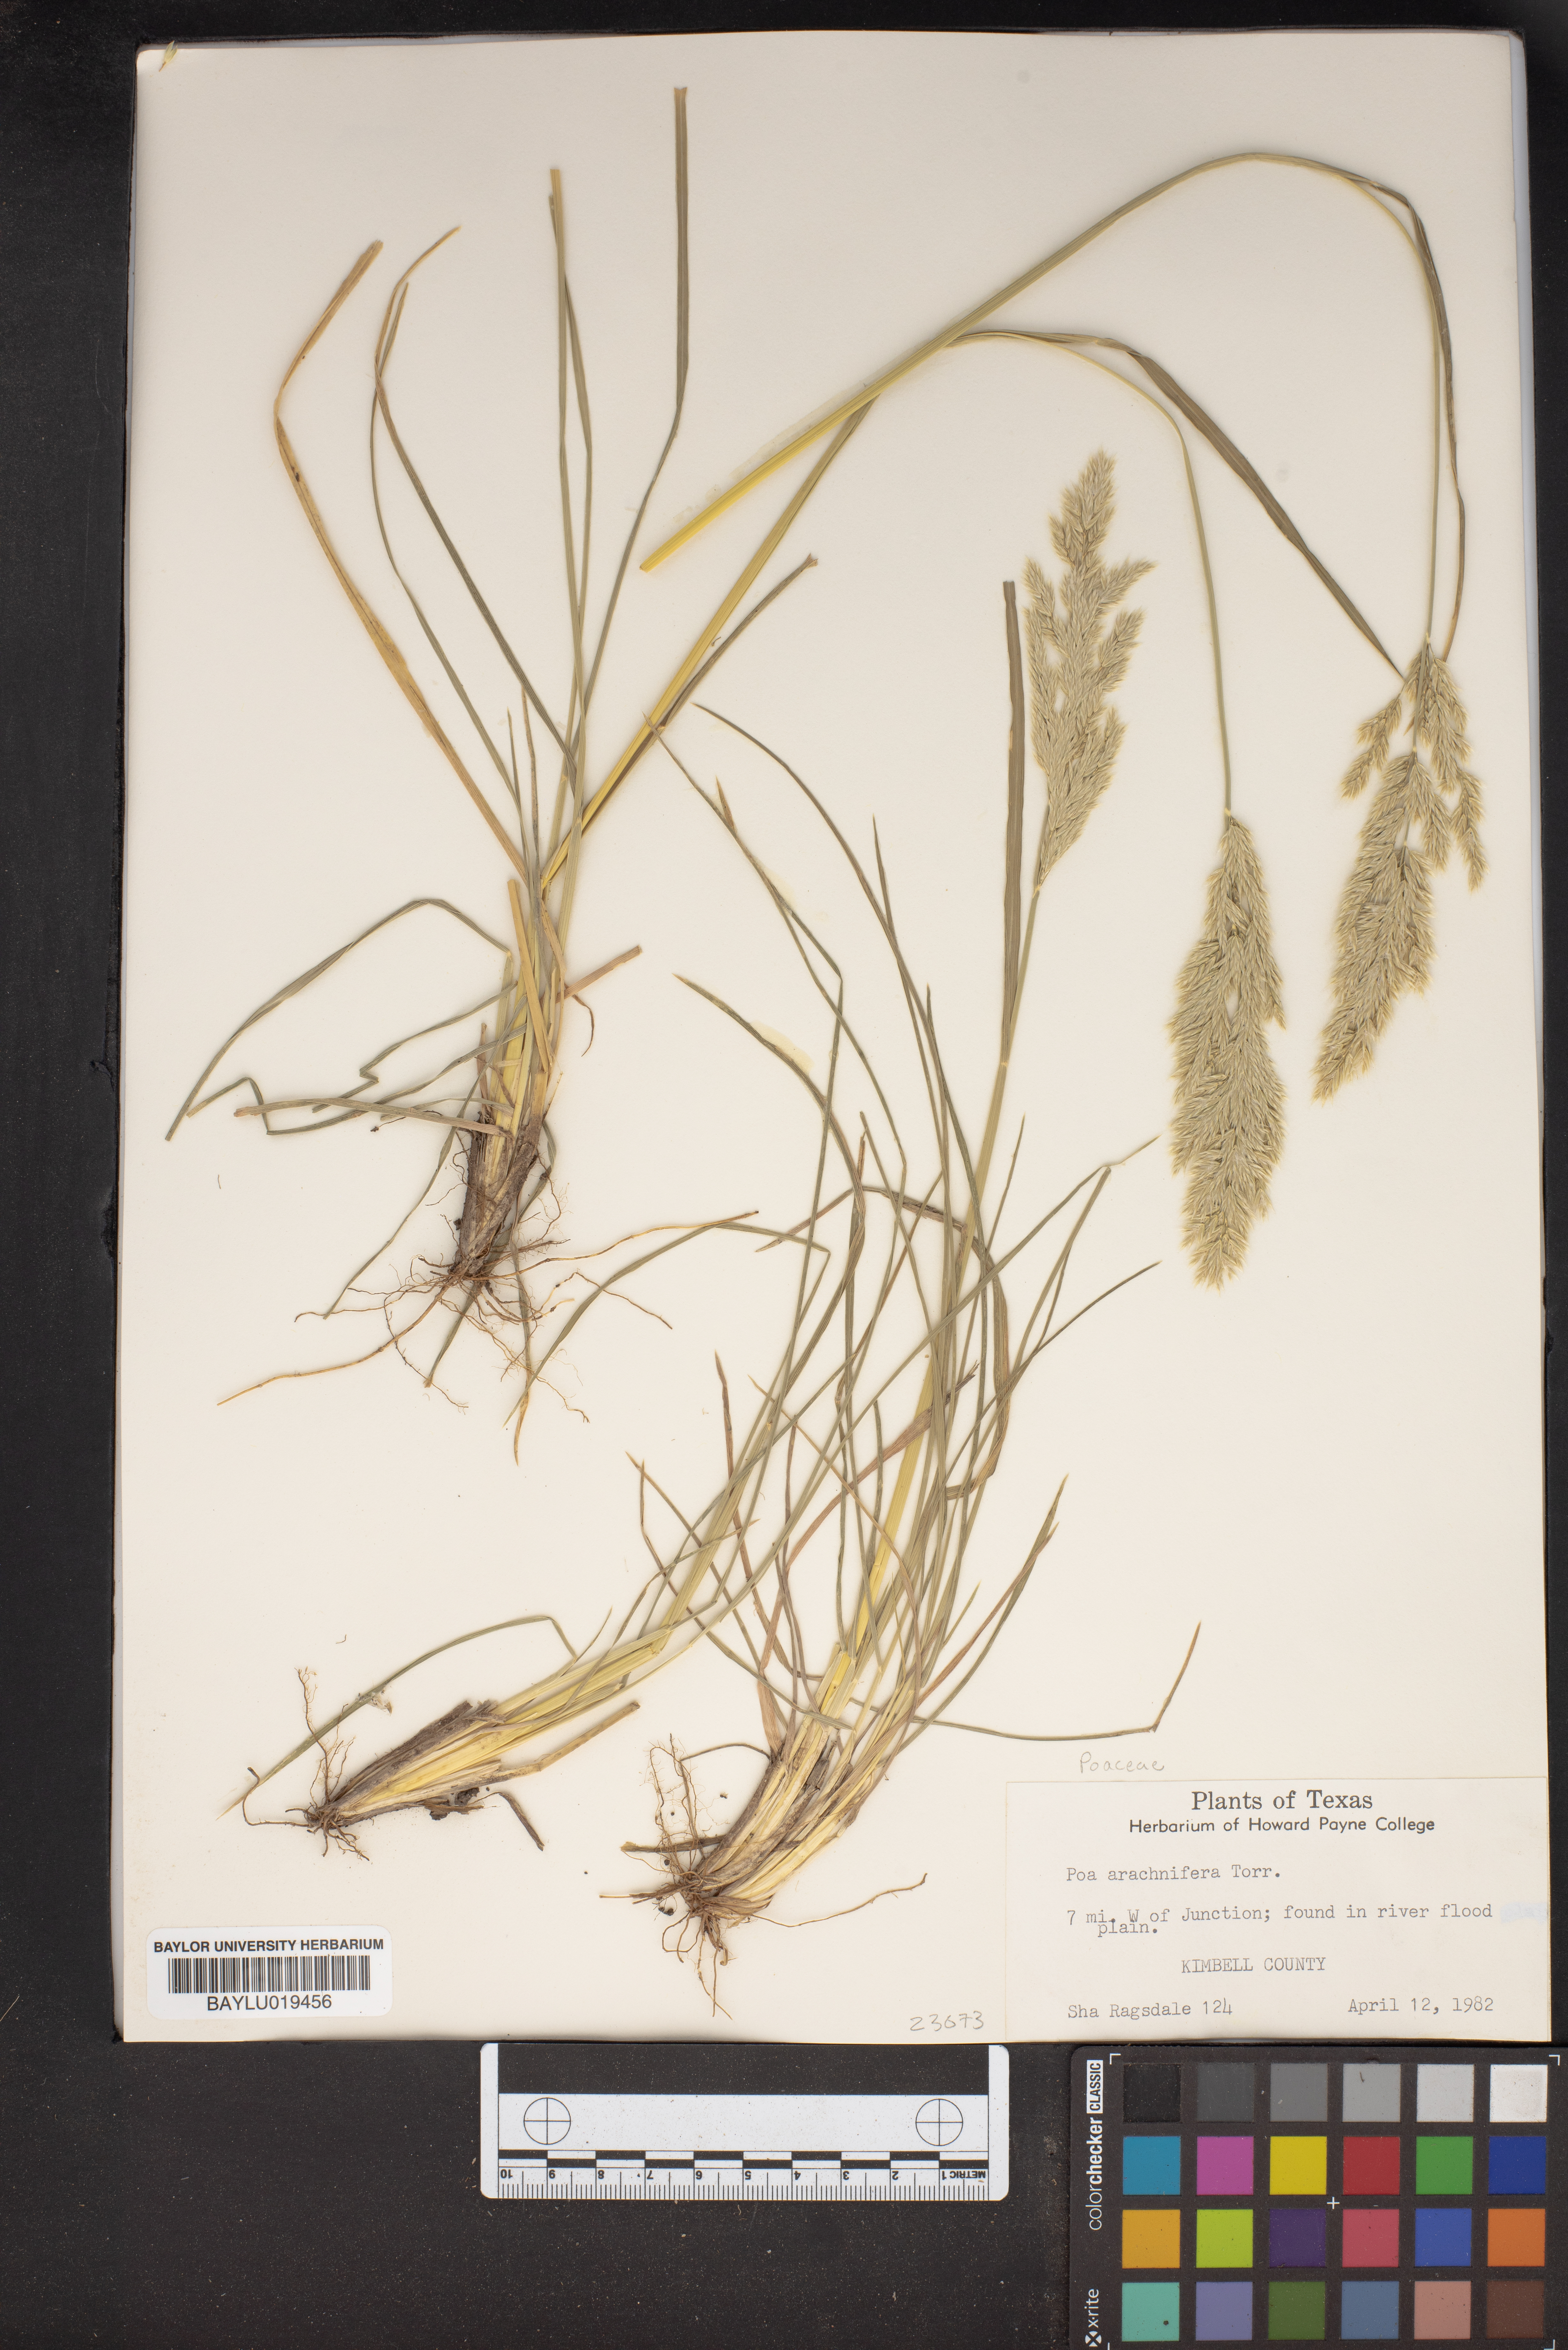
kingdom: Plantae
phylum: Tracheophyta
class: Liliopsida
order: Poales
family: Poaceae
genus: Poa
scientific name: Poa arachnifera
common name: Texas bluegrass
